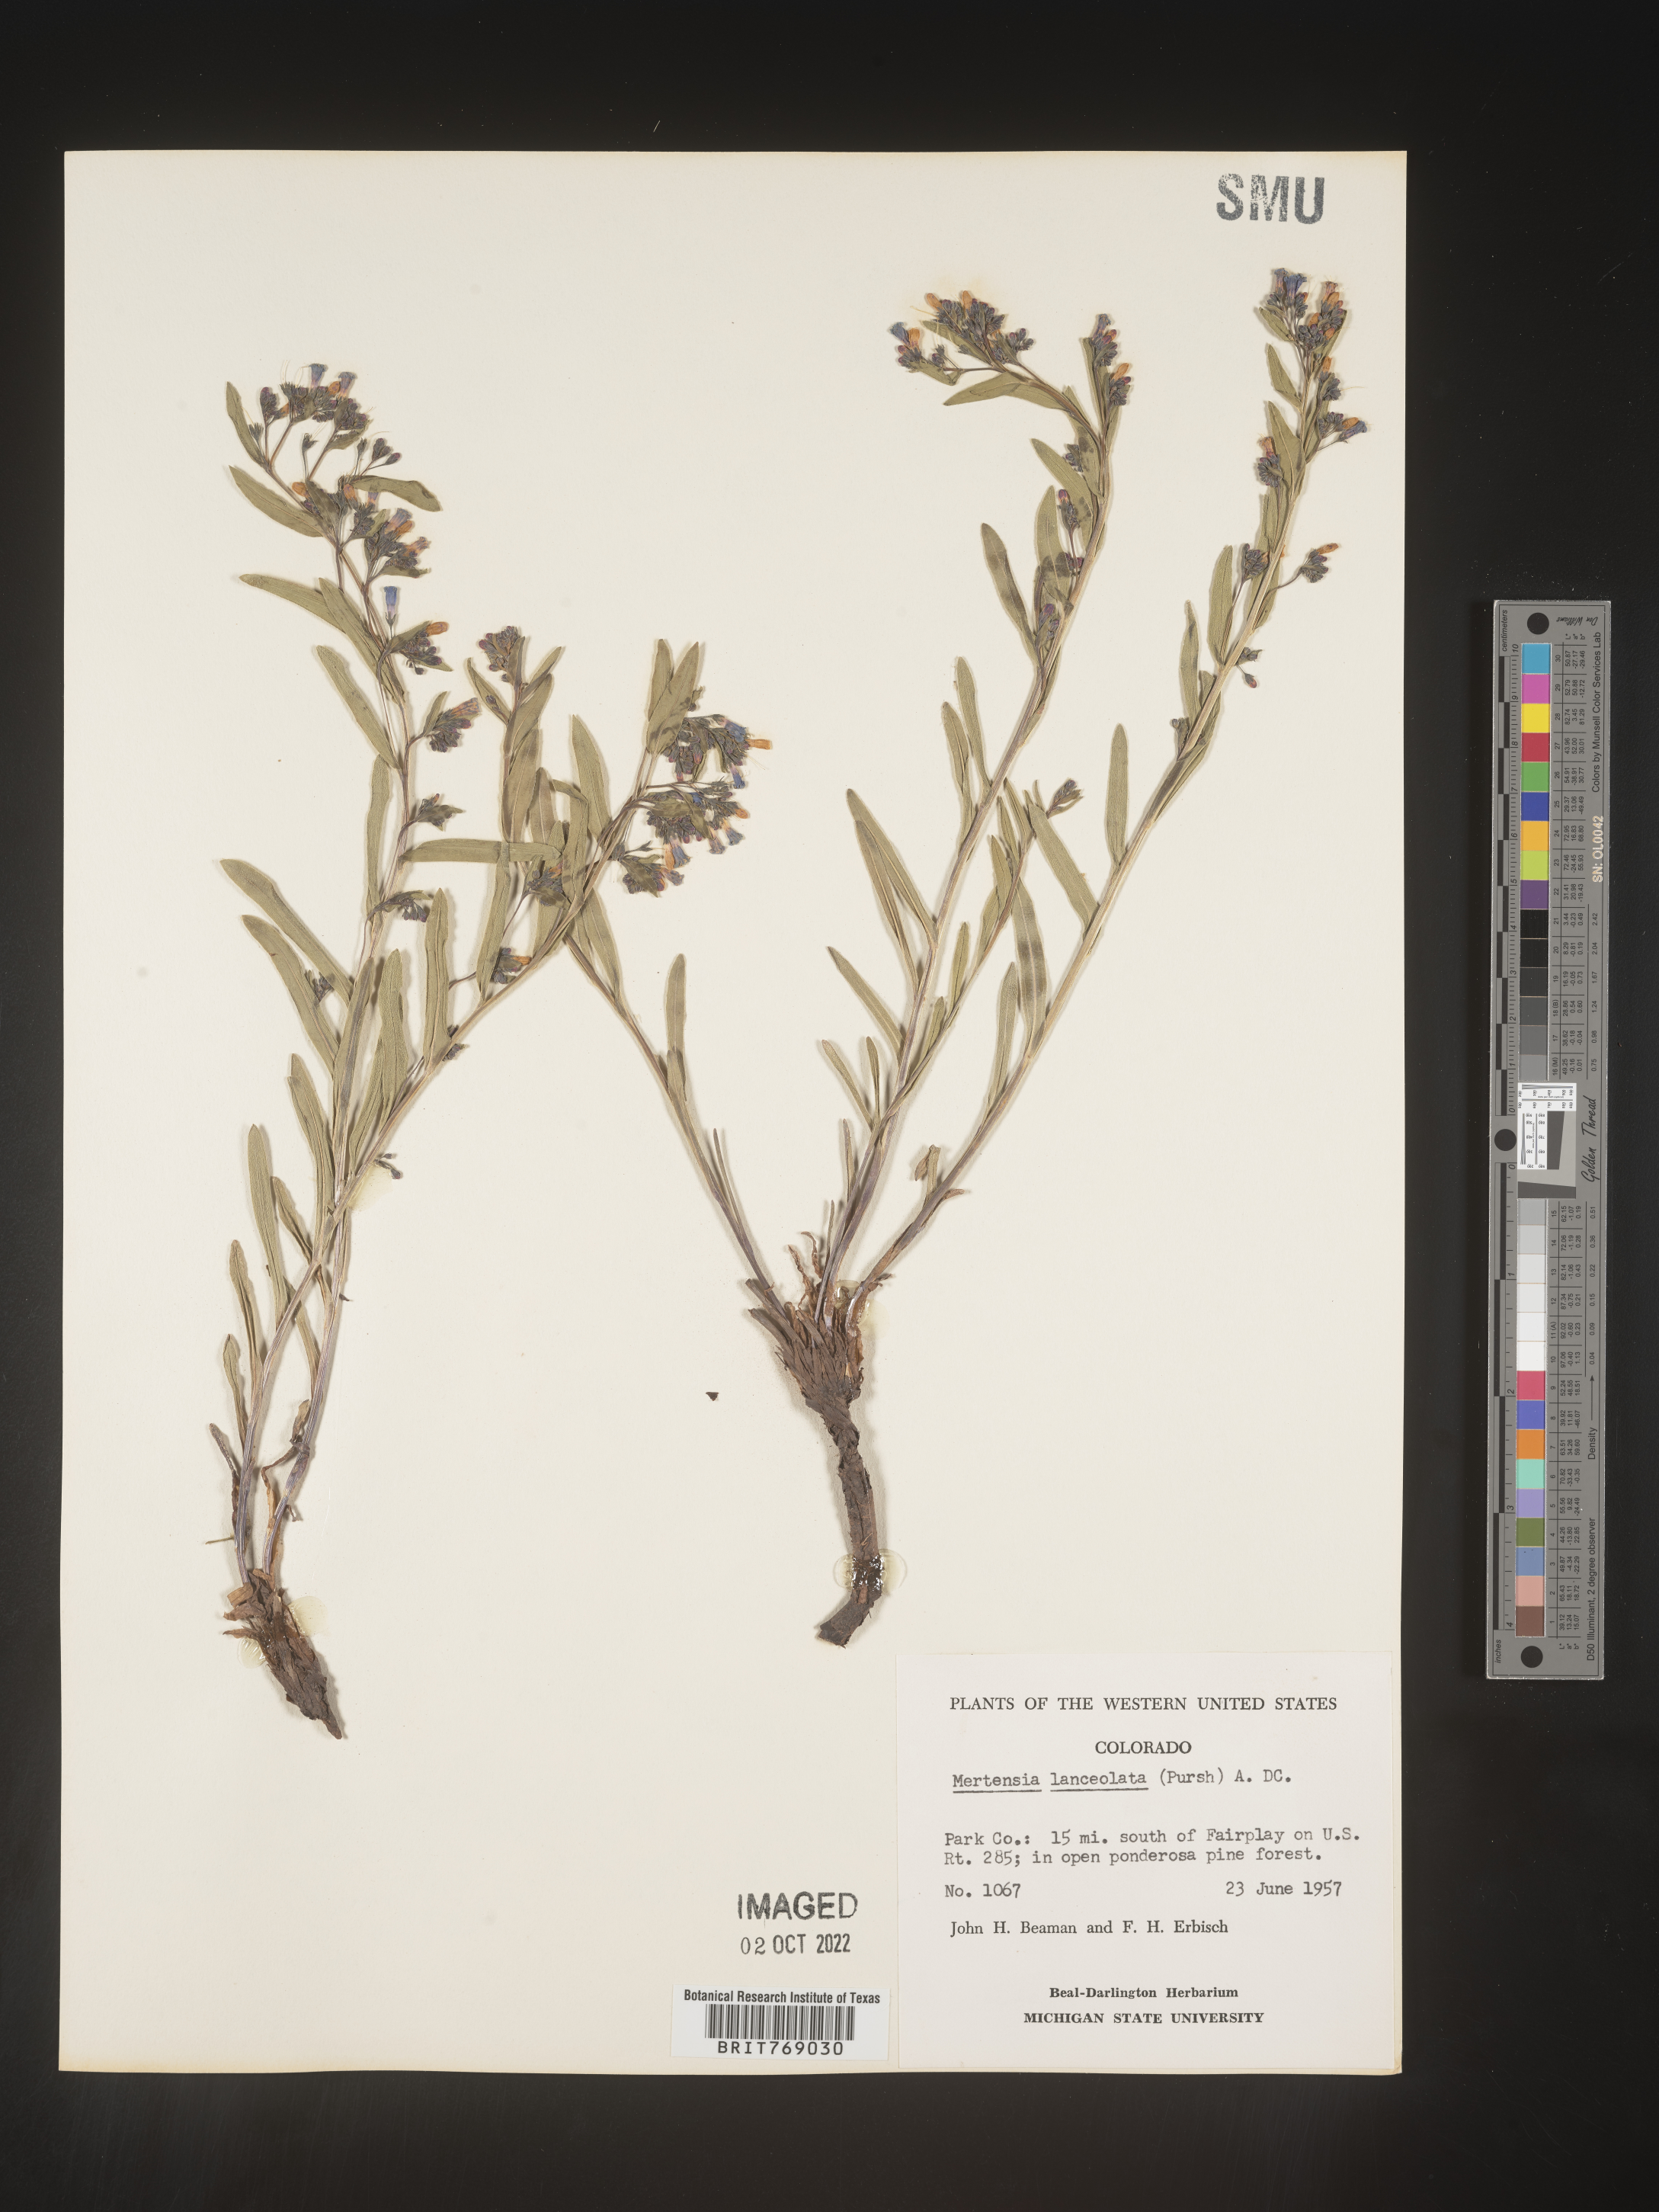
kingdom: Plantae
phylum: Tracheophyta
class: Magnoliopsida
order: Boraginales
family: Boraginaceae
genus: Mertensia
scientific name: Mertensia
